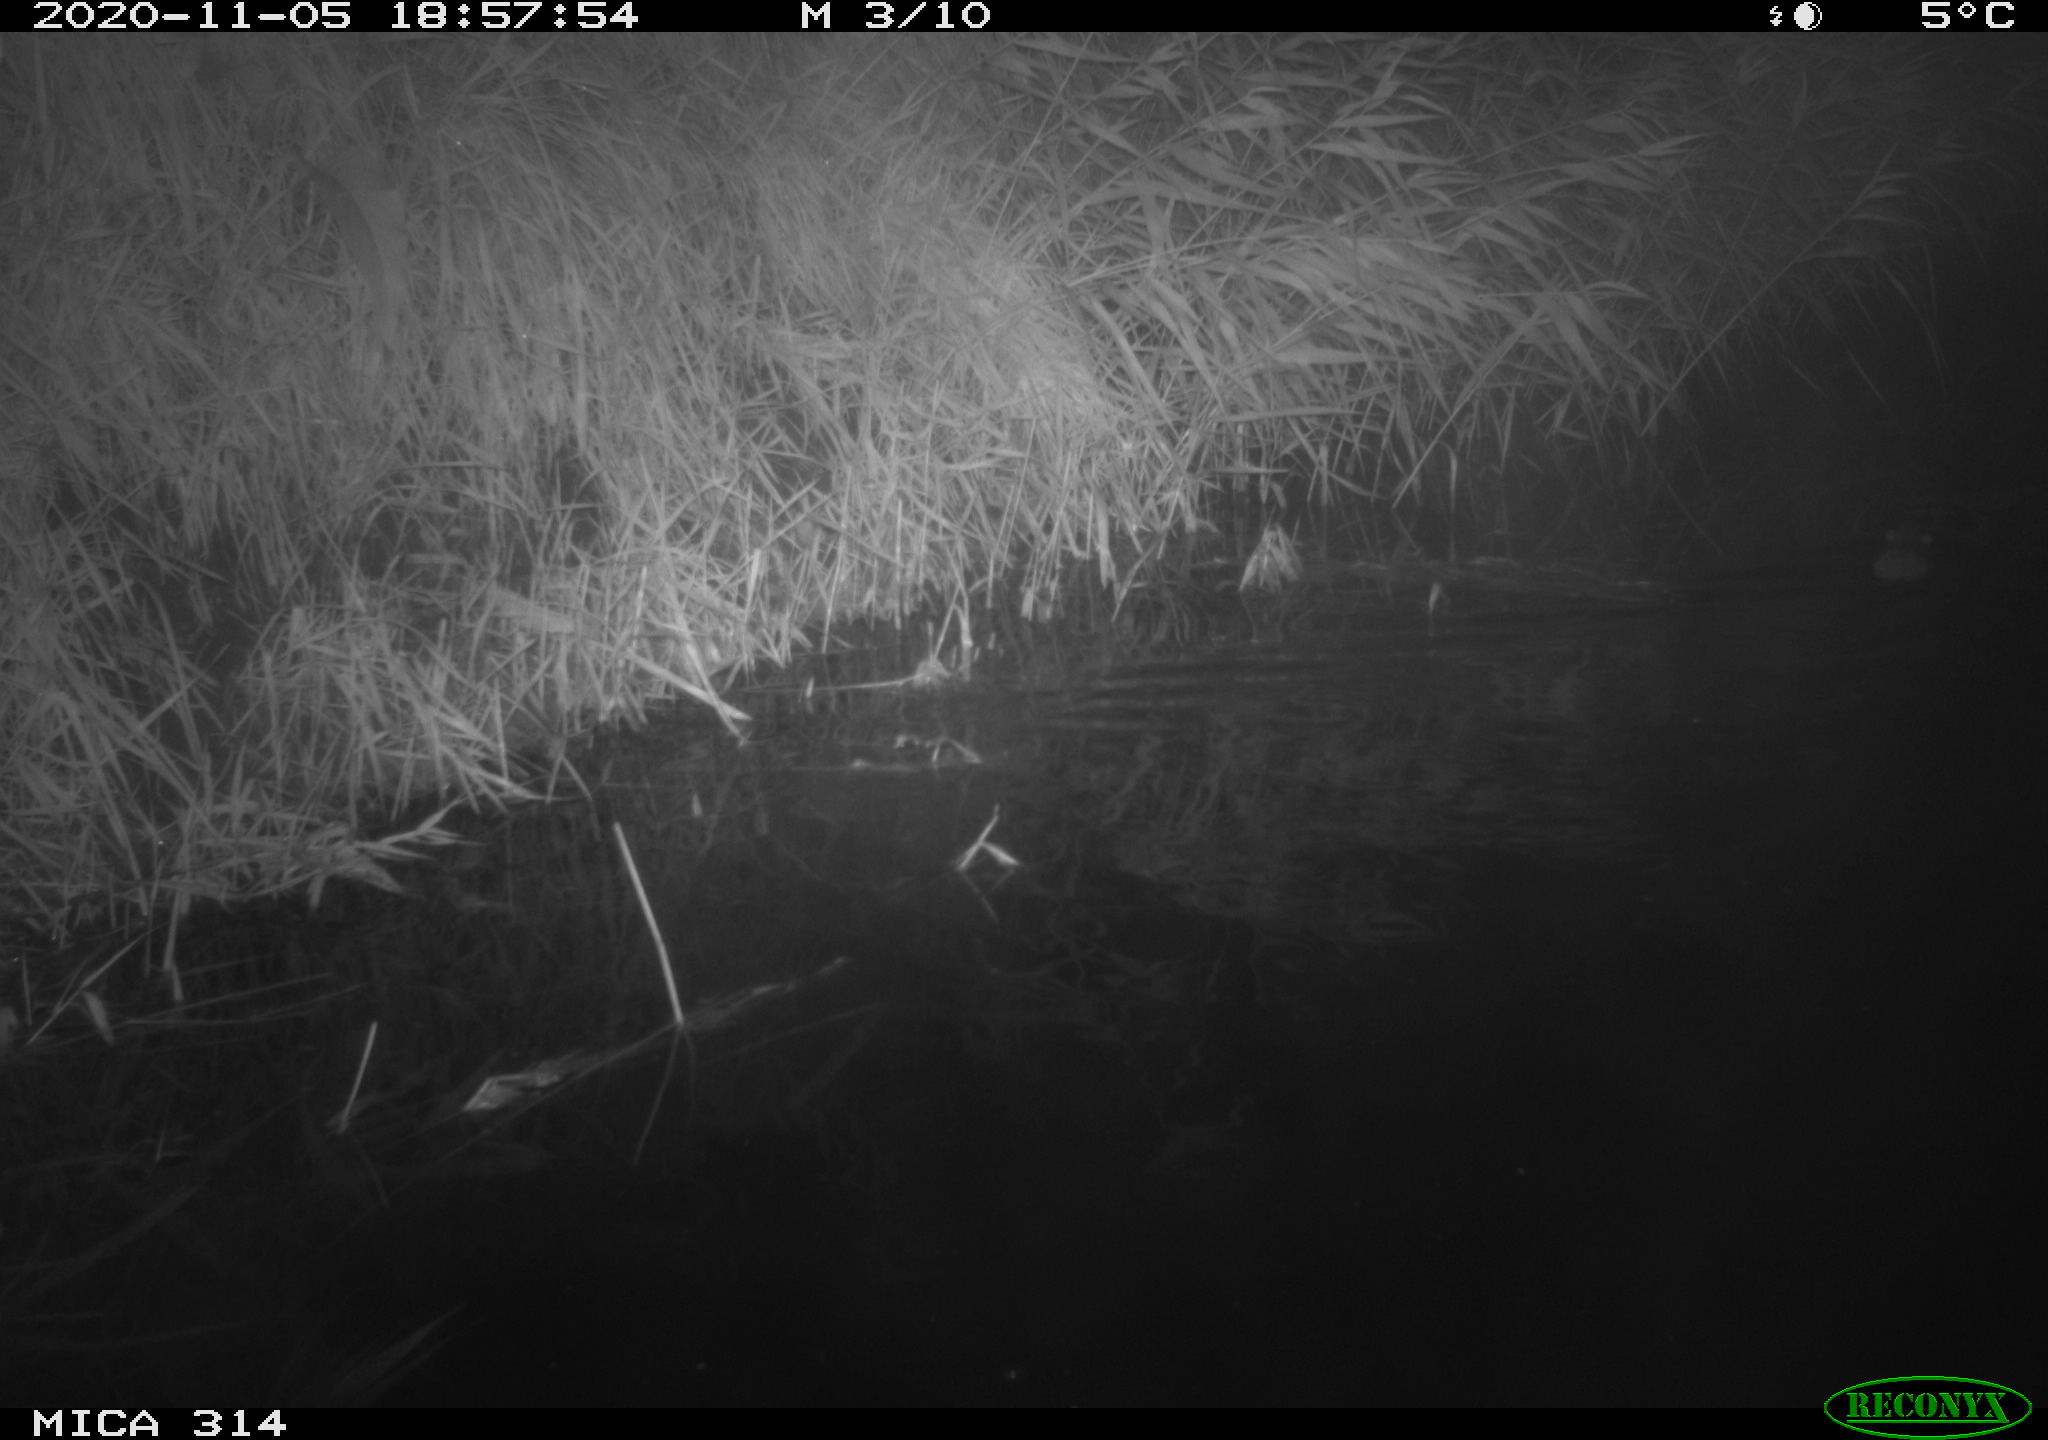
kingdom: Animalia
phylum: Chordata
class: Mammalia
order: Rodentia
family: Muridae
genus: Rattus
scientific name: Rattus norvegicus
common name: Brown rat
